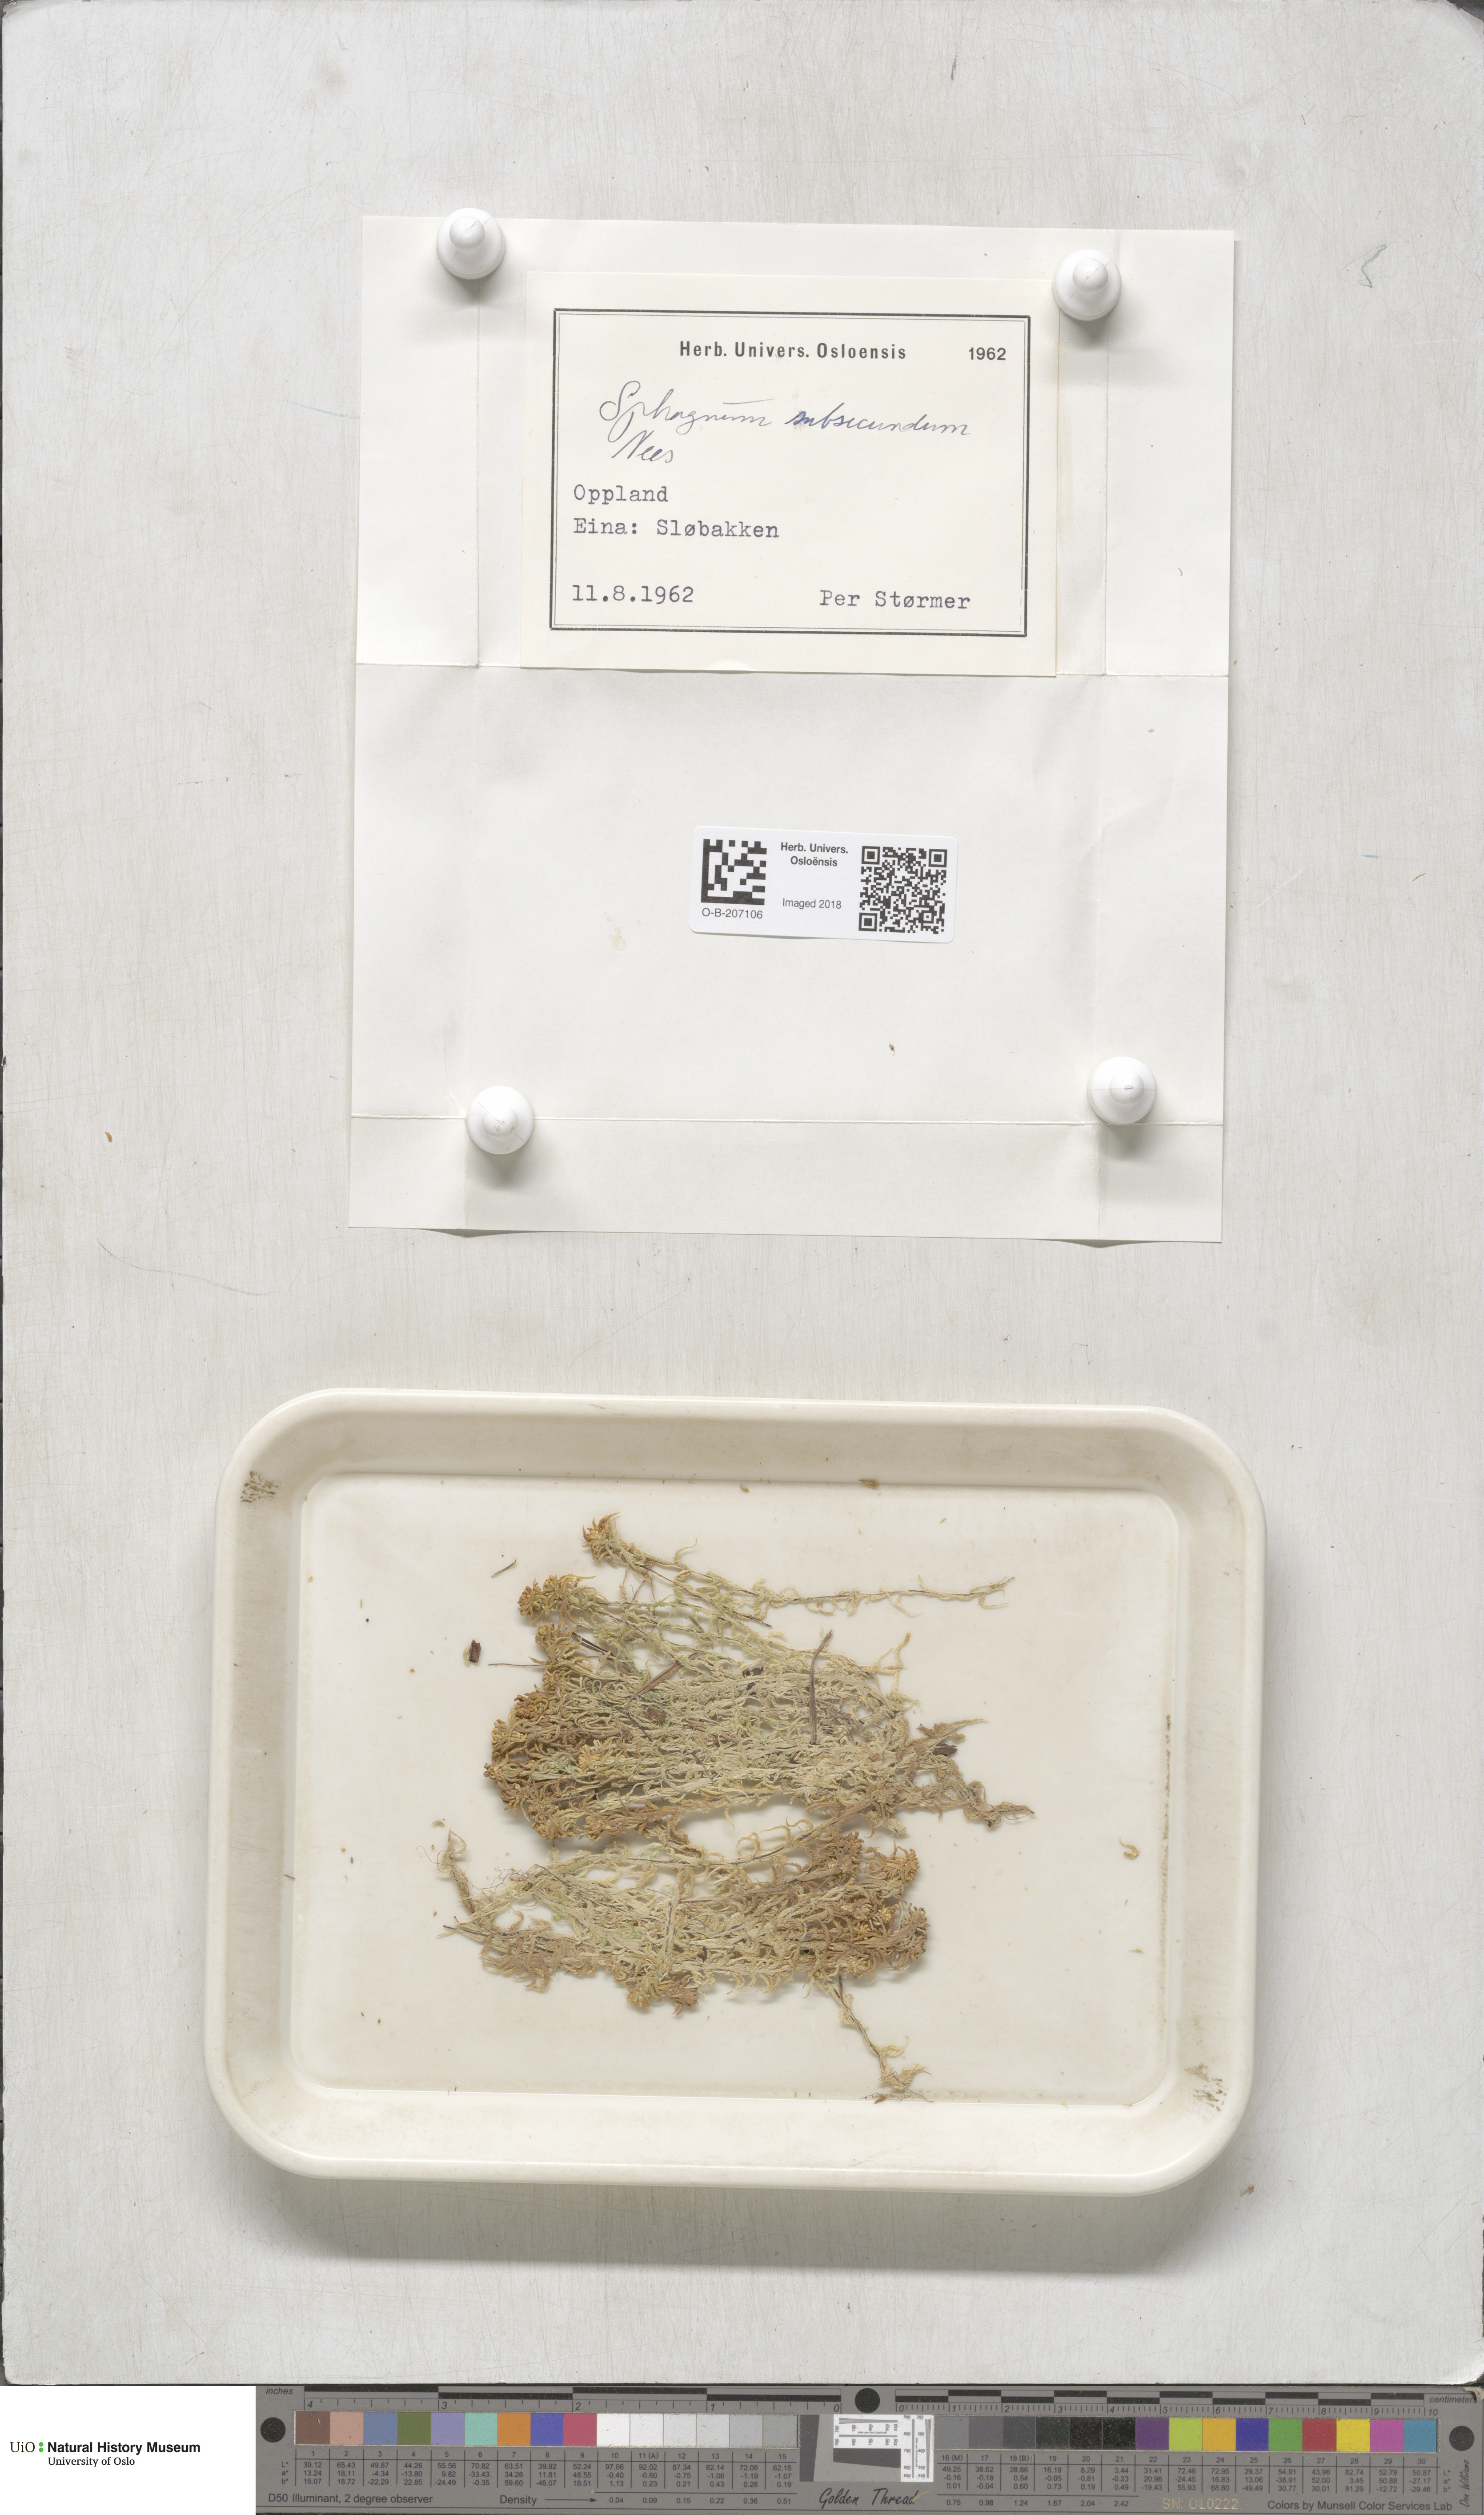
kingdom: Plantae
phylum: Bryophyta
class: Sphagnopsida
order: Sphagnales
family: Sphagnaceae
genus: Sphagnum
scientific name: Sphagnum subsecundum
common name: Orange peat moss
